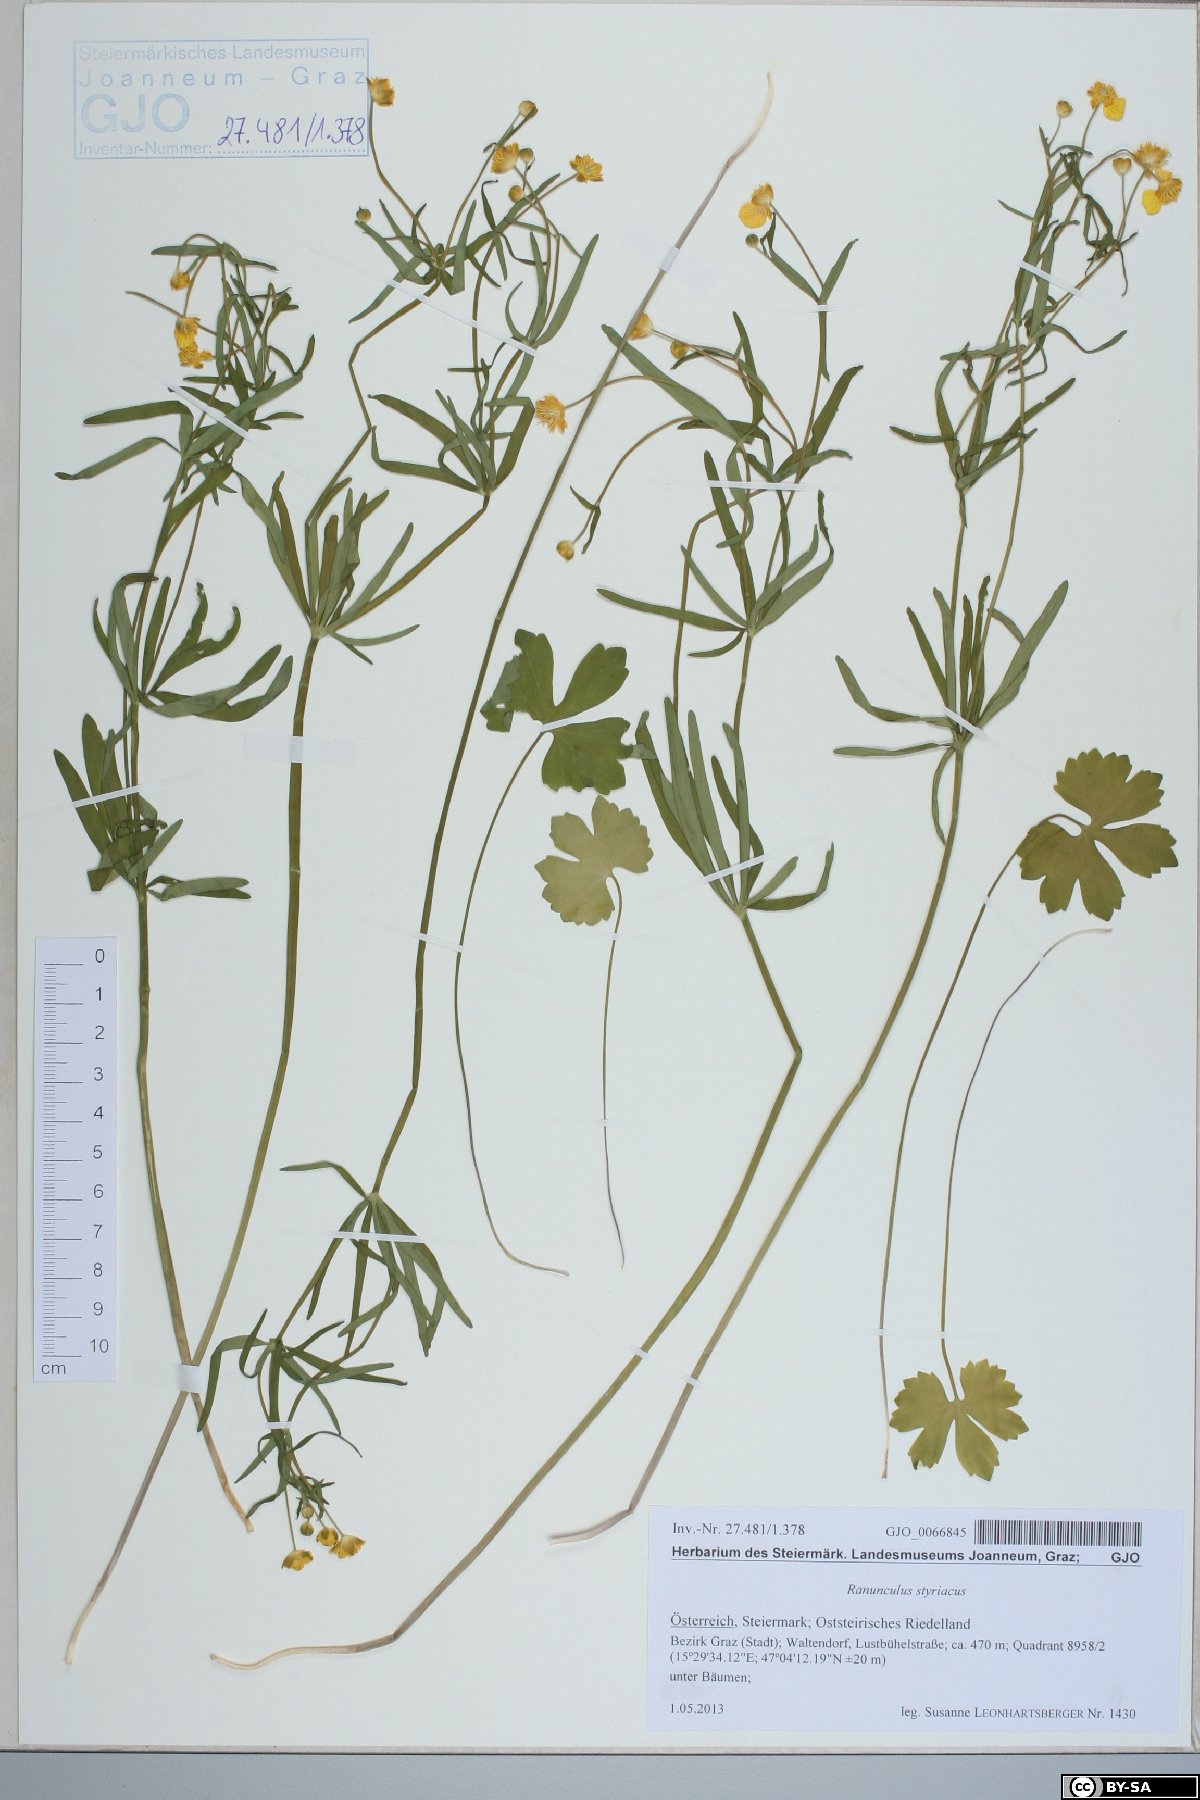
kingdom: Plantae
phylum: Tracheophyta
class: Magnoliopsida
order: Ranunculales
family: Ranunculaceae
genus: Ranunculus
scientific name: Ranunculus styriacus
